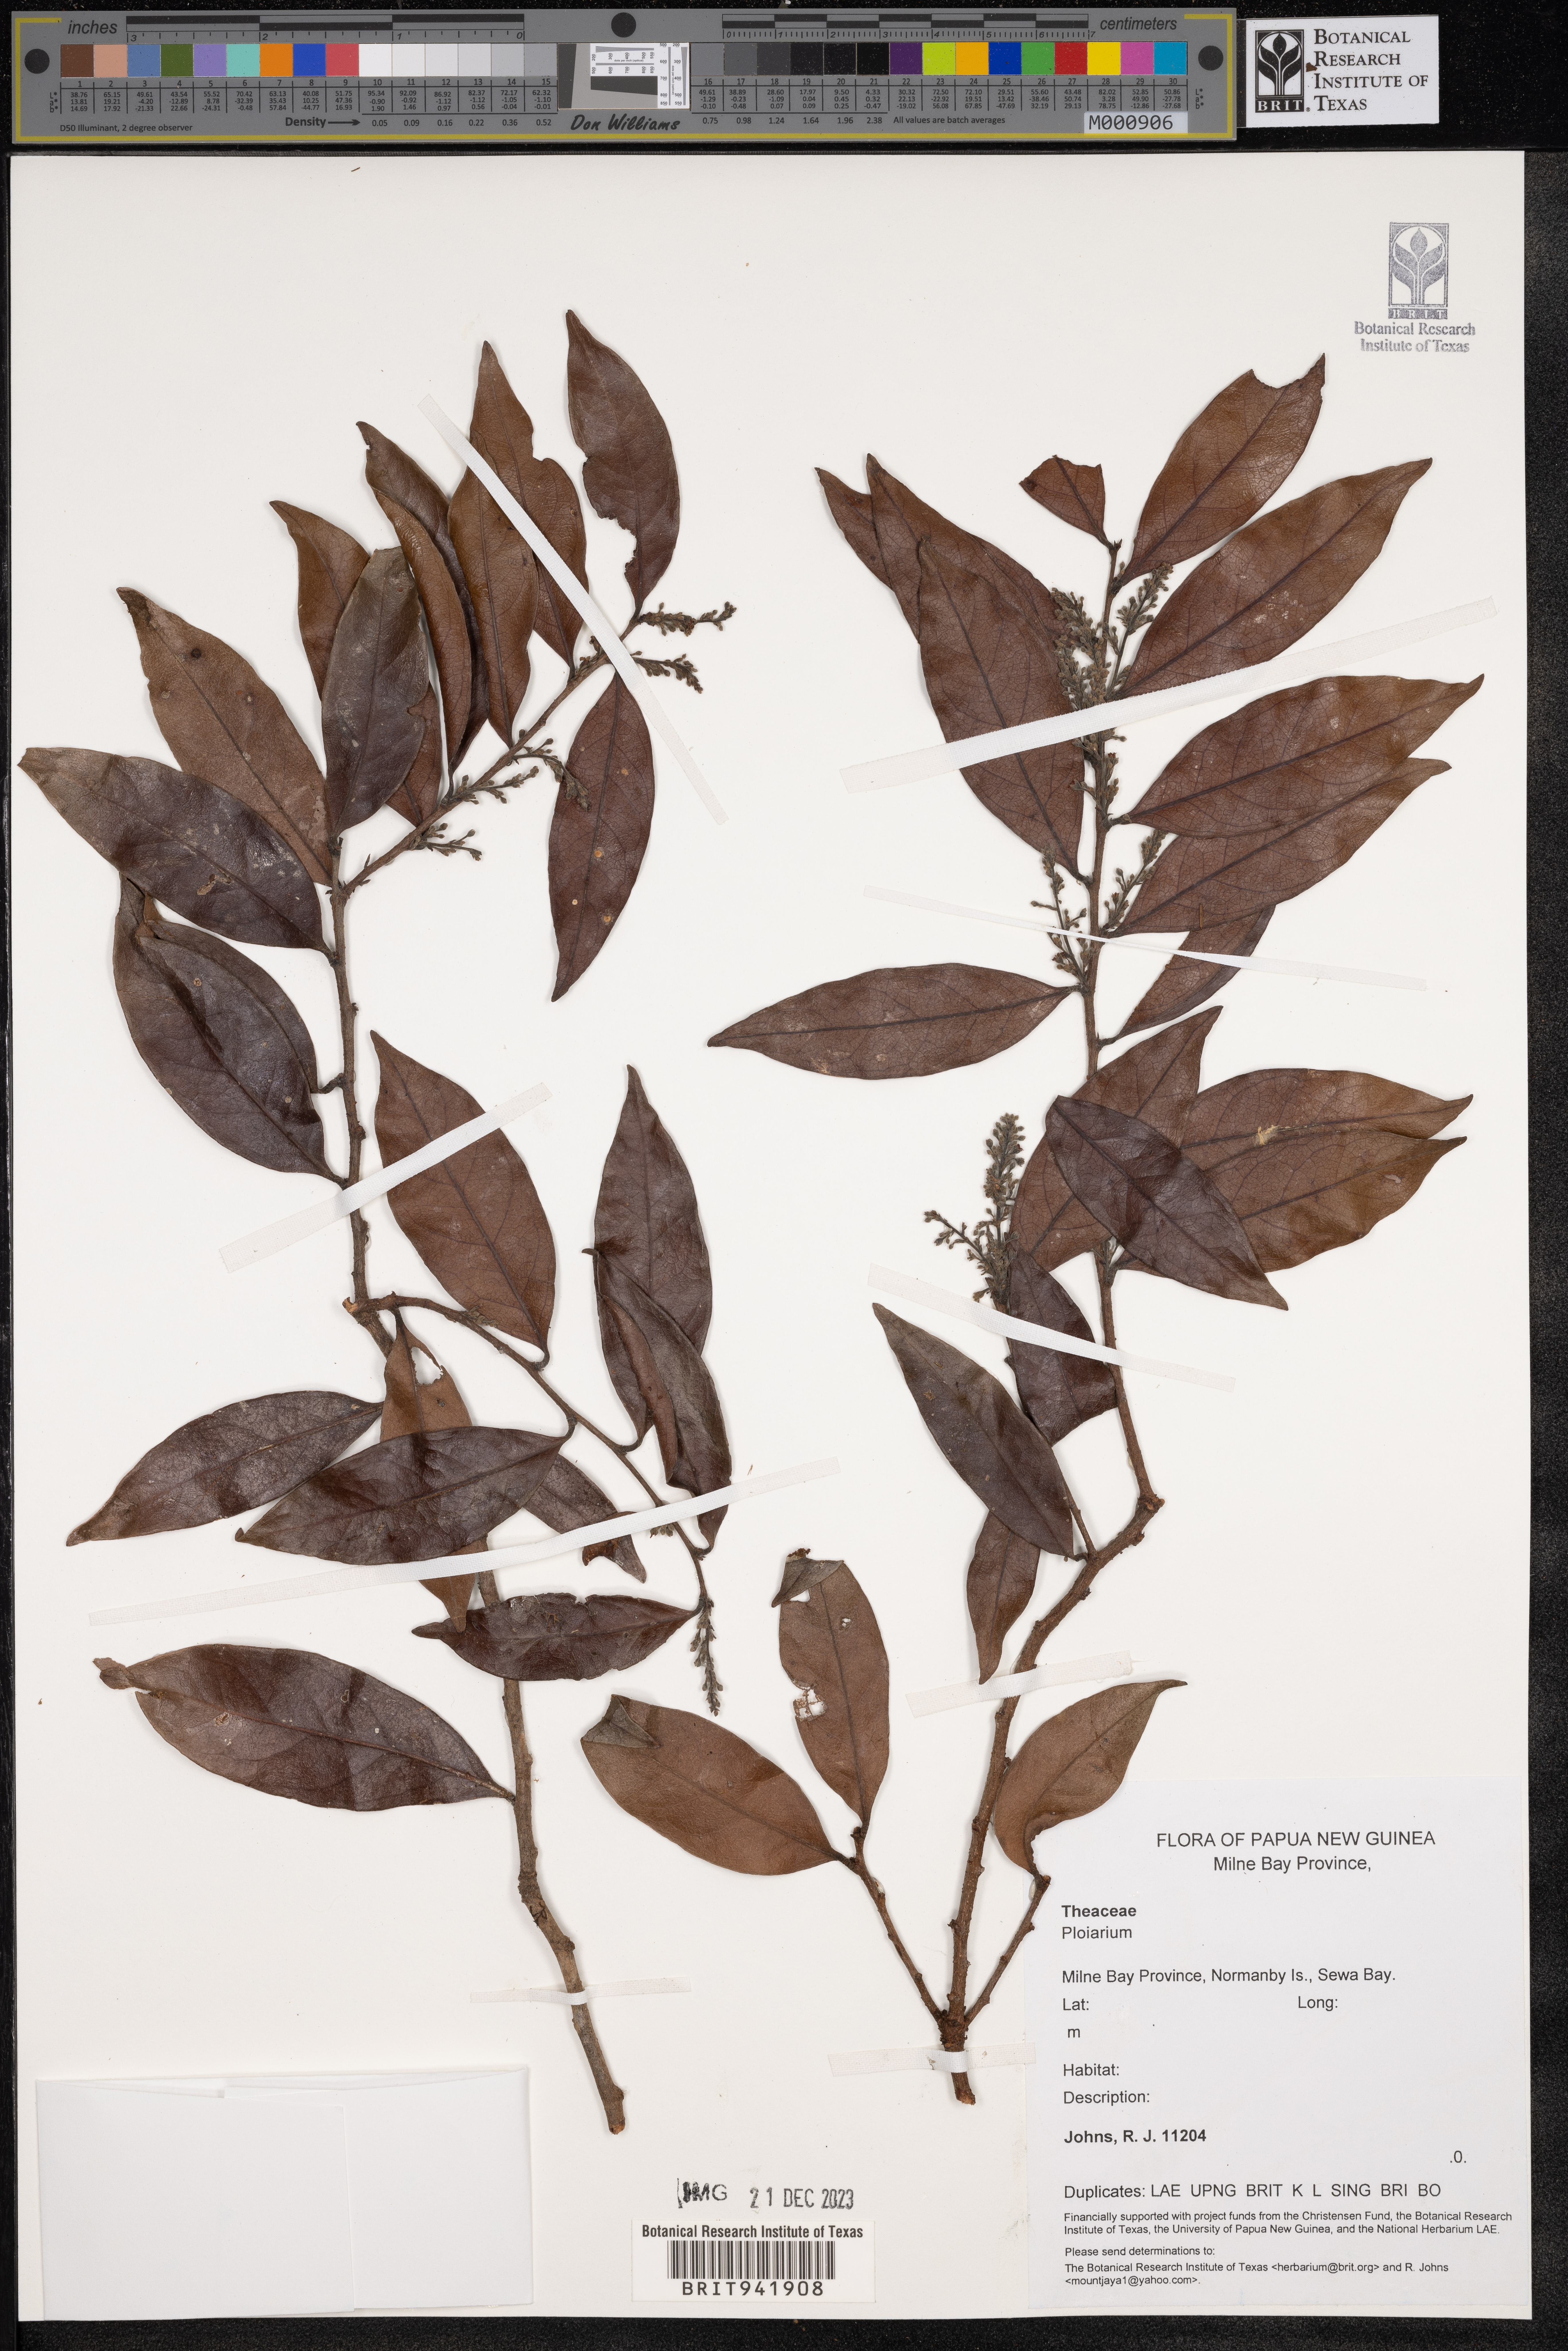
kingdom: Plantae
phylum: Tracheophyta
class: Magnoliopsida
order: Malpighiales
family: Bonnetiaceae
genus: Ploiarium
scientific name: Ploiarium
